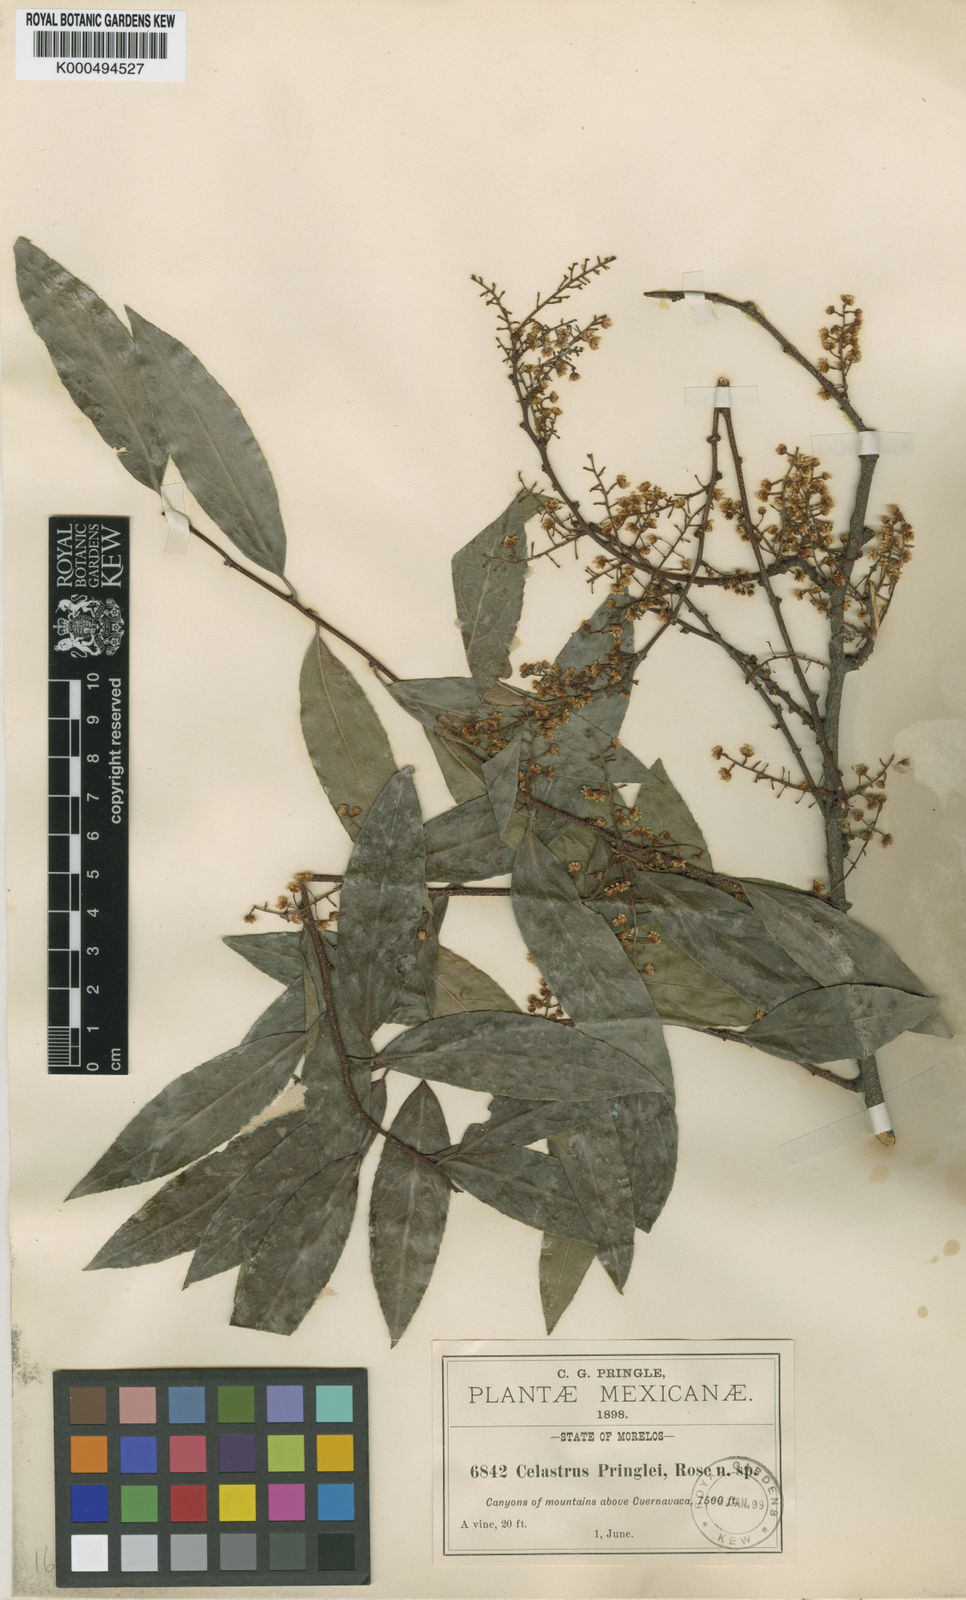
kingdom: Plantae
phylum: Tracheophyta
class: Magnoliopsida
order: Celastrales
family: Celastraceae
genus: Celastrus
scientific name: Celastrus pringlei
